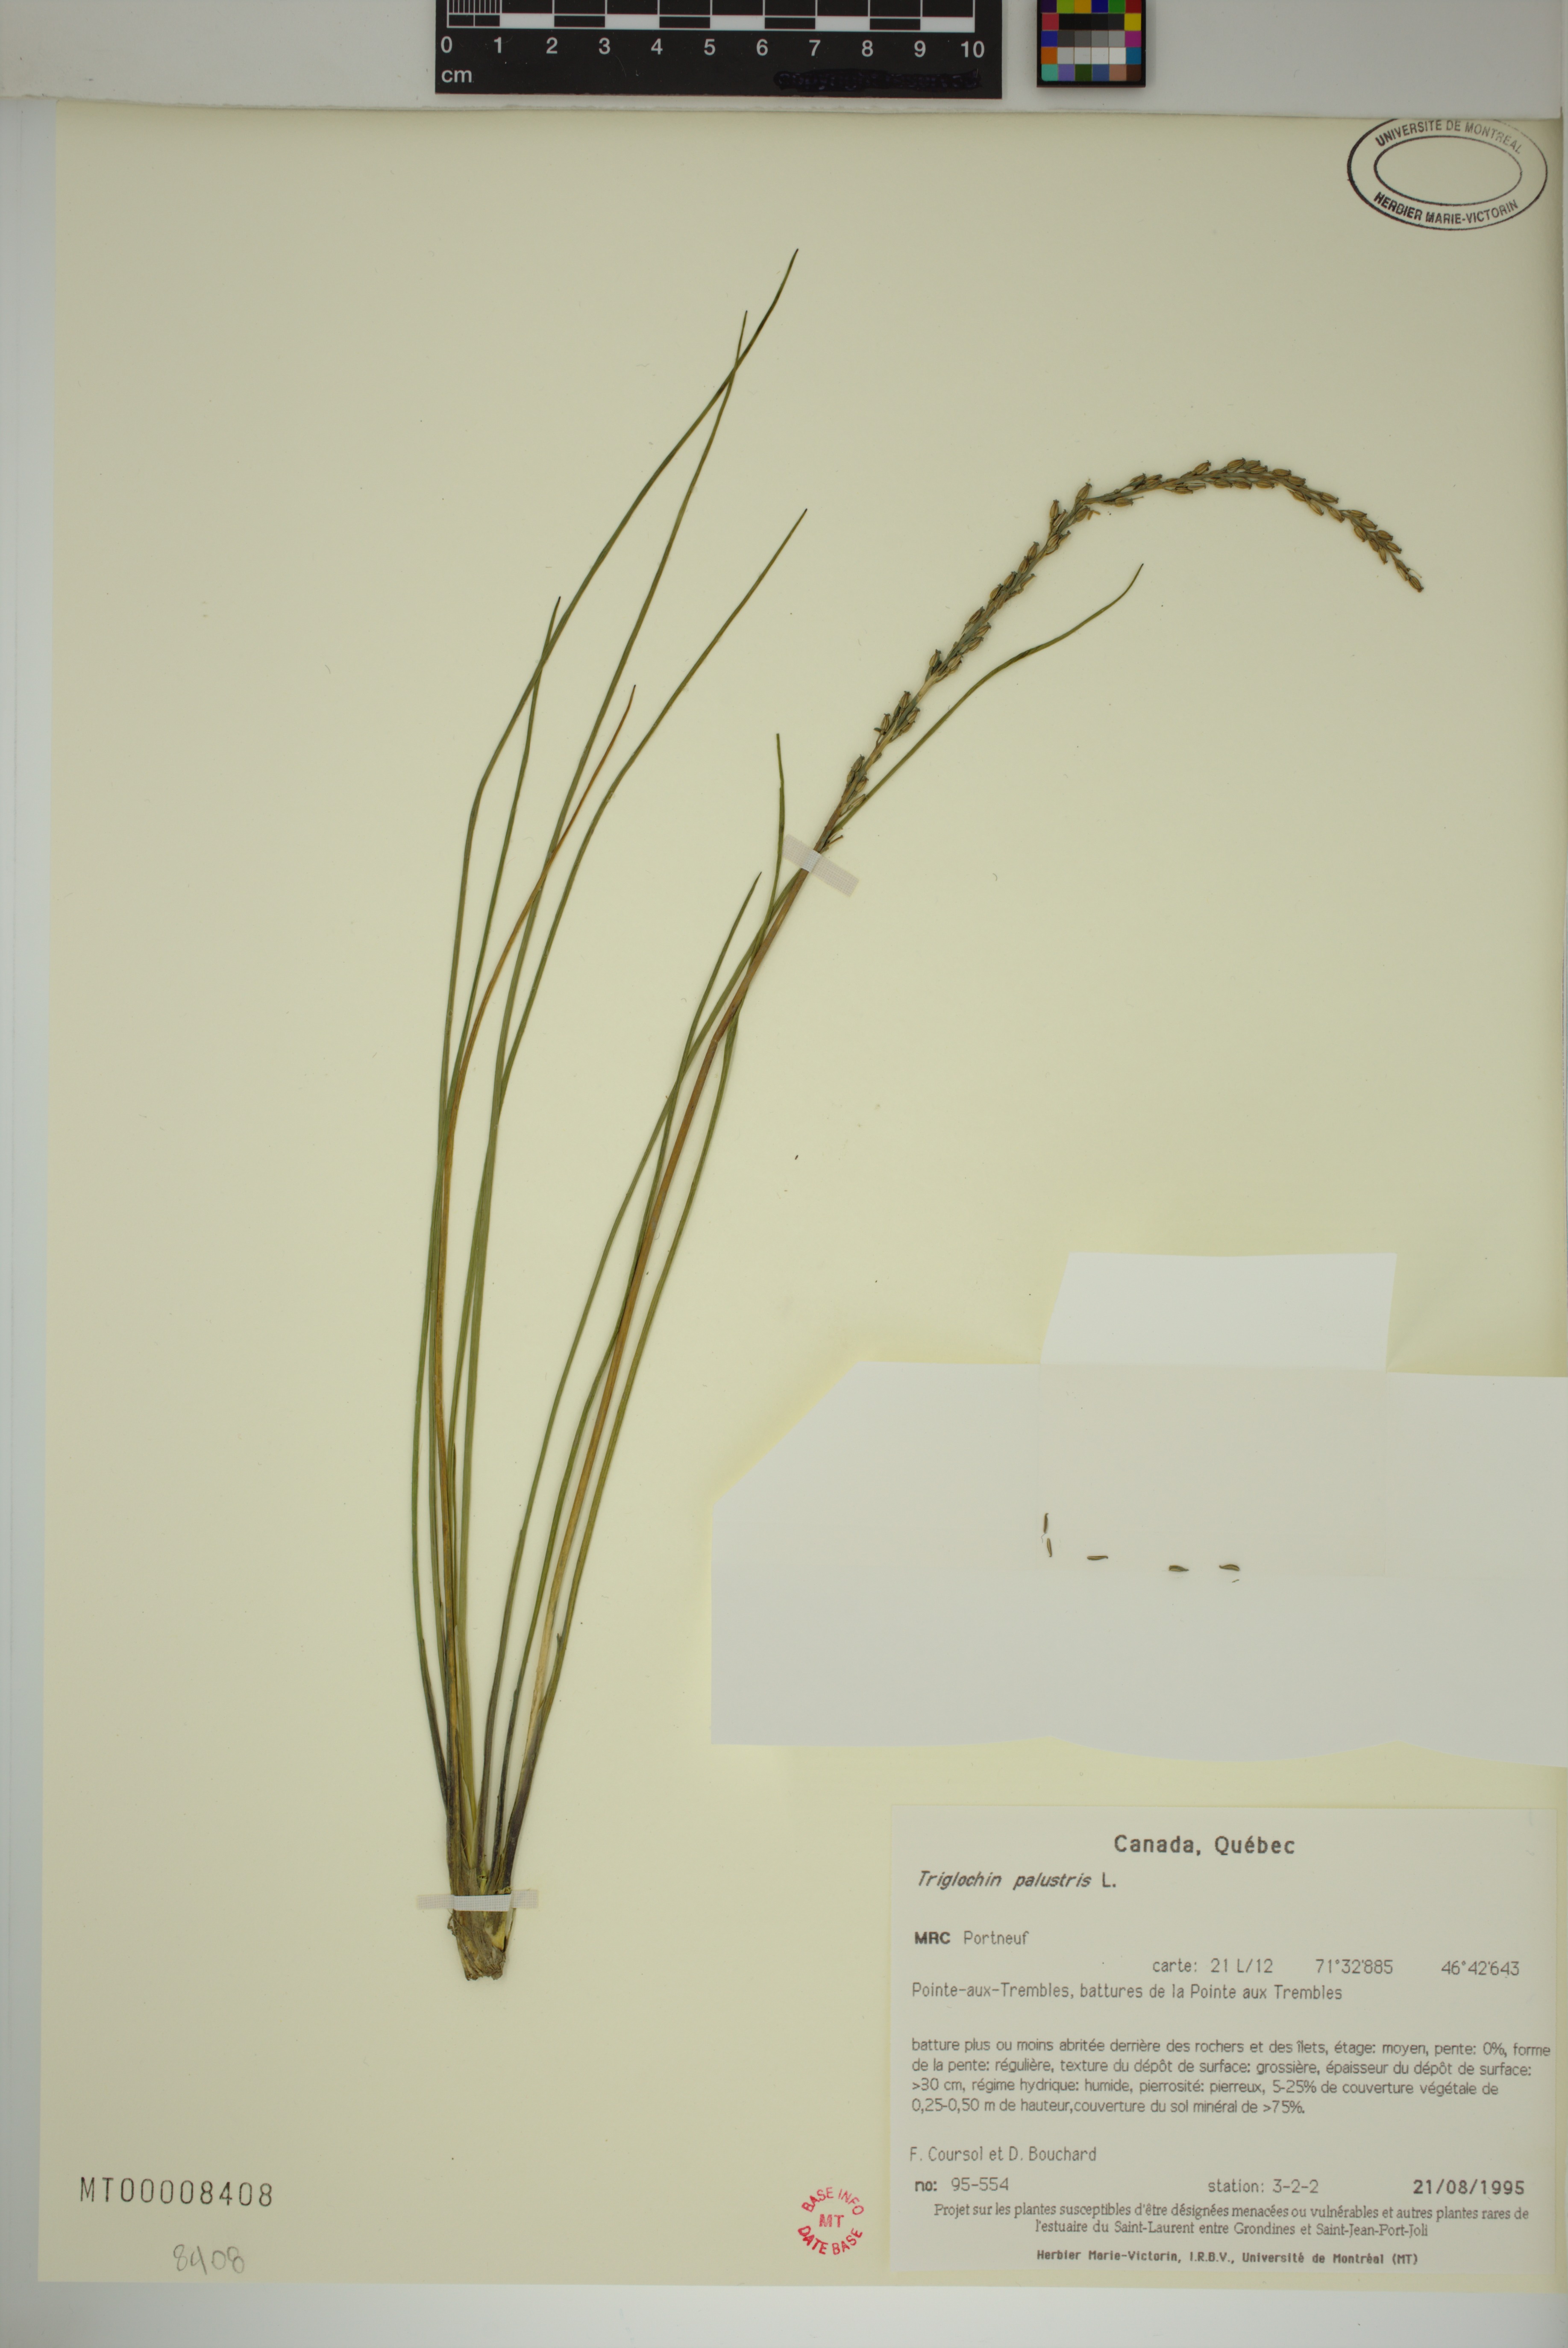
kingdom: Plantae
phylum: Tracheophyta
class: Liliopsida
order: Alismatales
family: Juncaginaceae
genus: Triglochin
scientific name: Triglochin palustris
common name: Marsh arrowgrass
